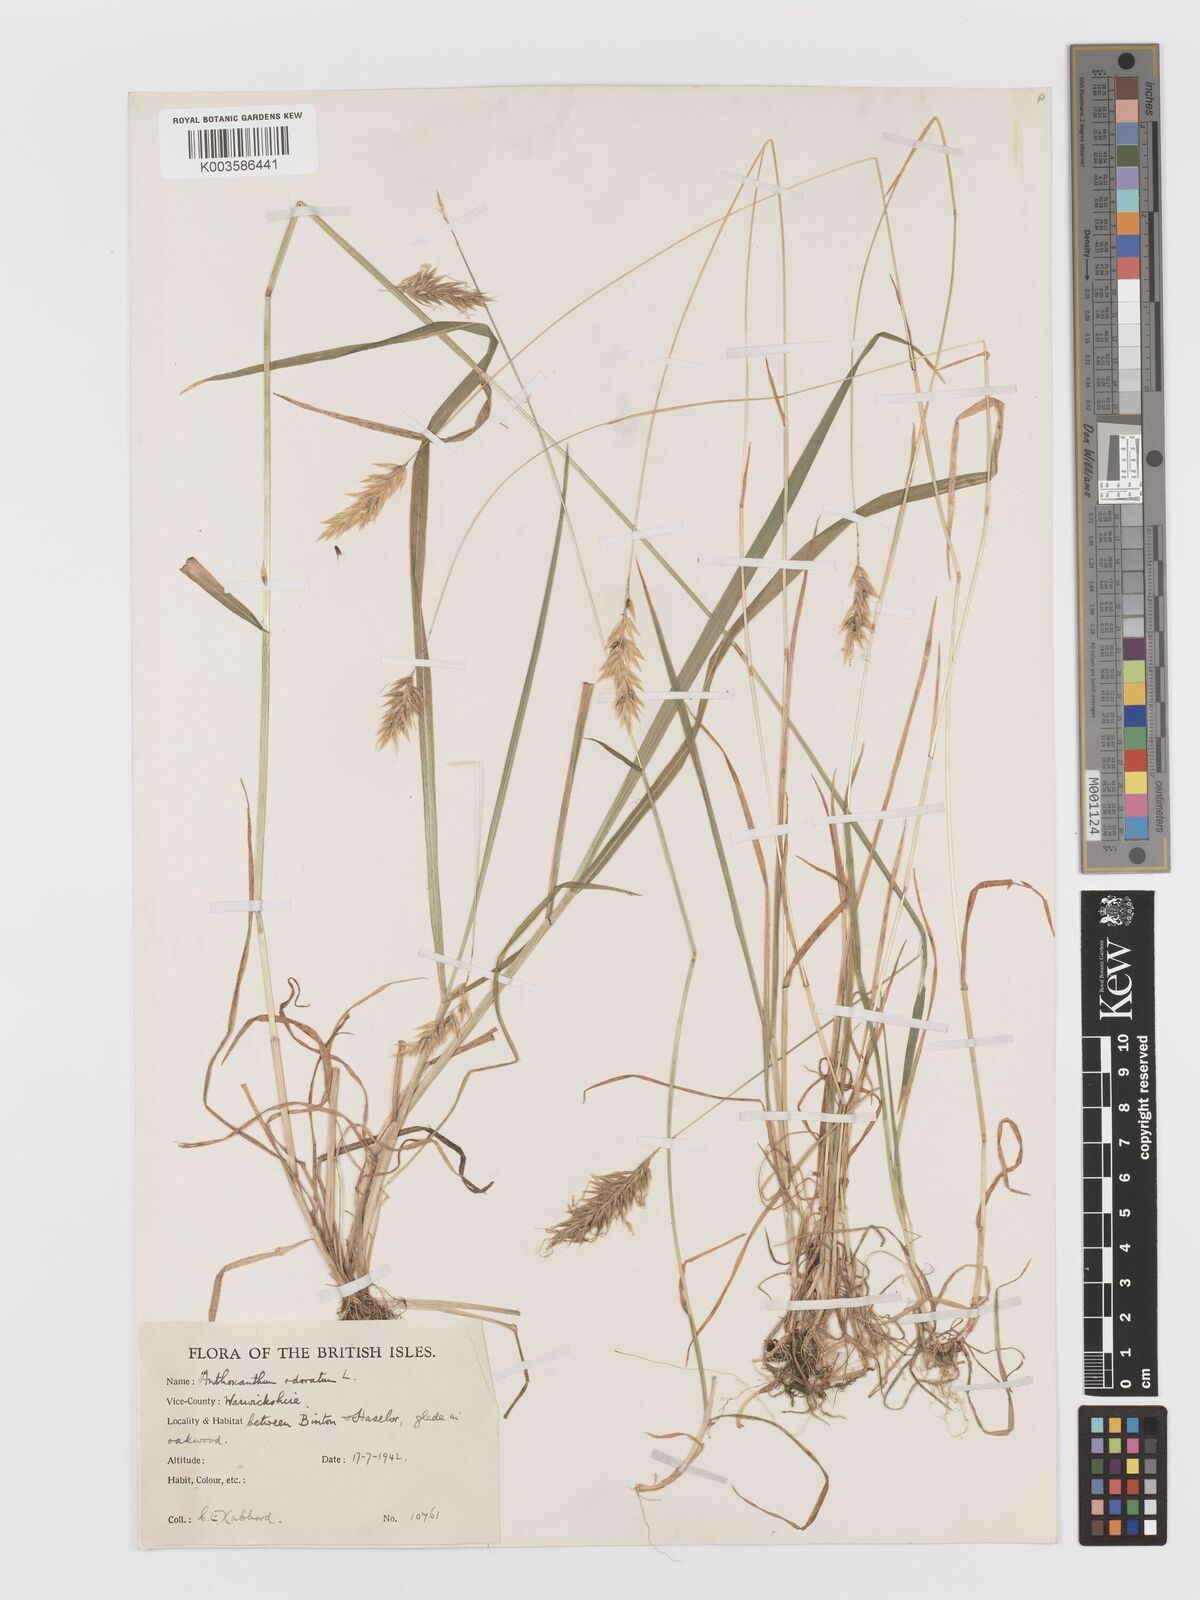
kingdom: Plantae
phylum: Tracheophyta
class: Liliopsida
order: Poales
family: Poaceae
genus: Anthoxanthum
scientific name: Anthoxanthum odoratum
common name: Sweet vernalgrass
